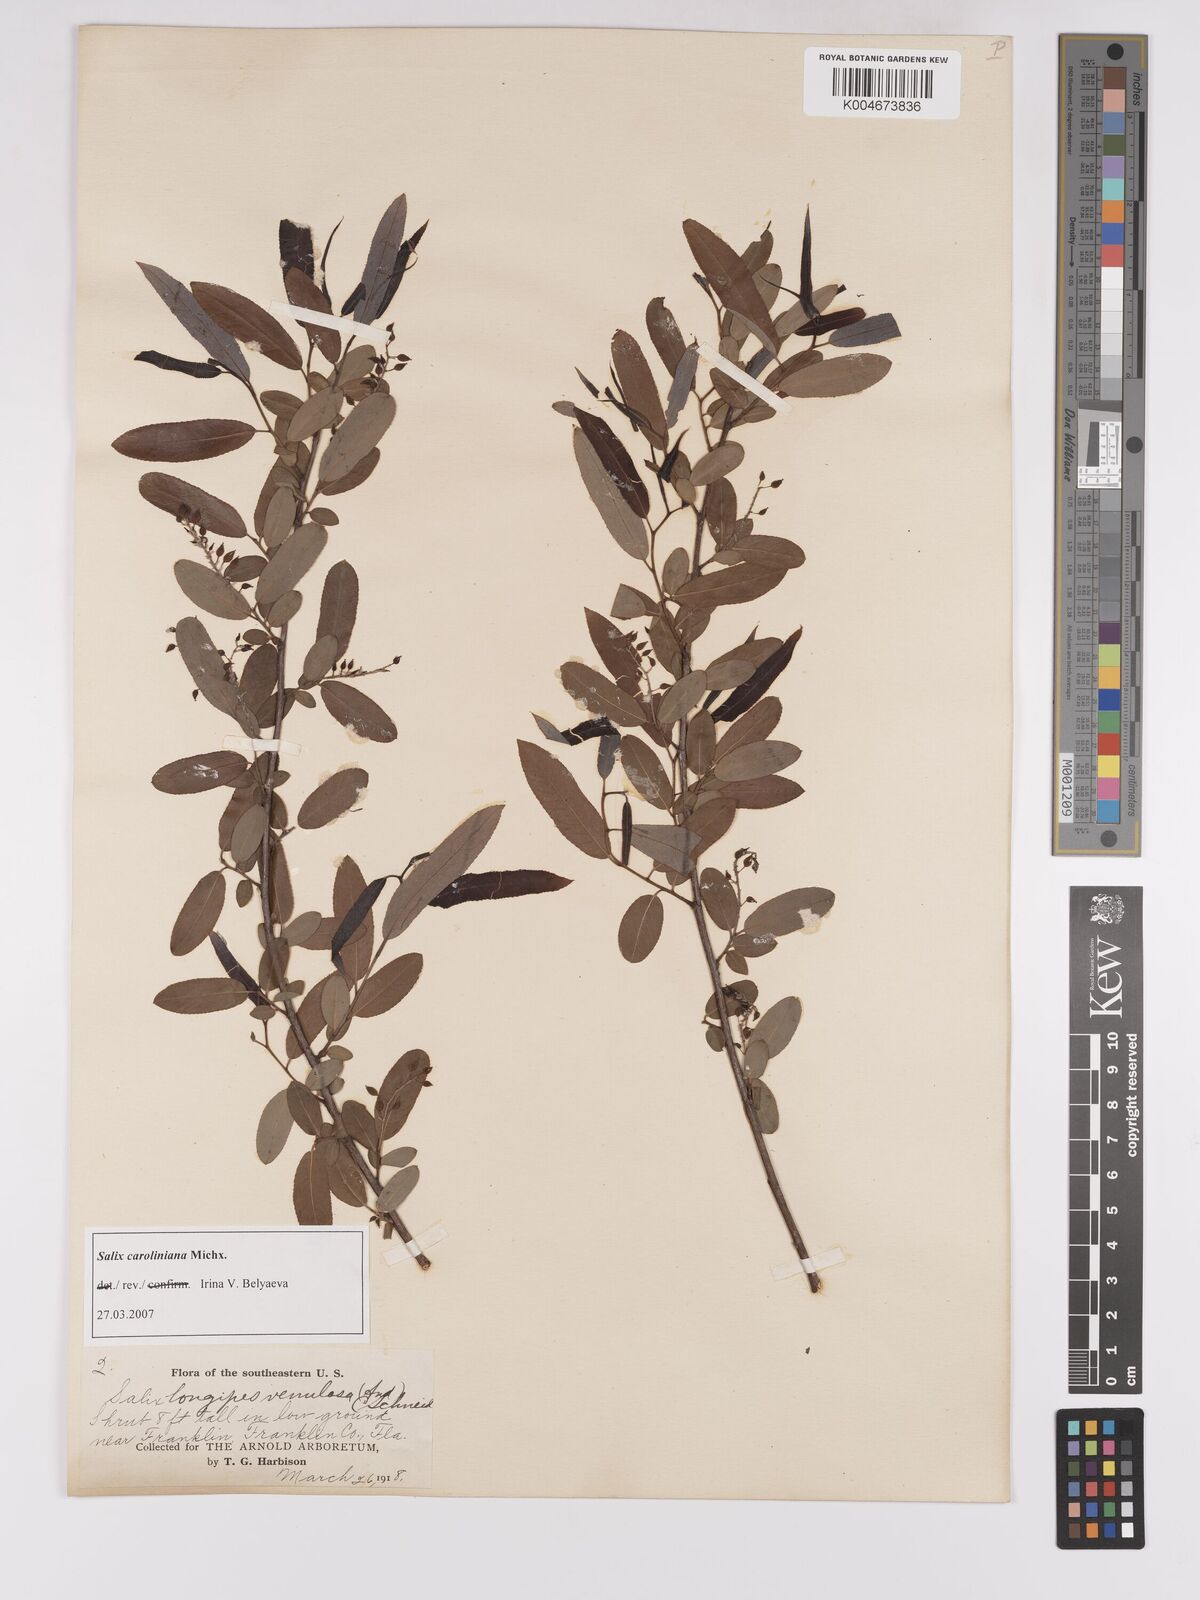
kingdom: Plantae
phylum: Tracheophyta
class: Magnoliopsida
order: Malpighiales
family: Salicaceae
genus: Salix
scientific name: Salix caroliniana
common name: Carolina willow
